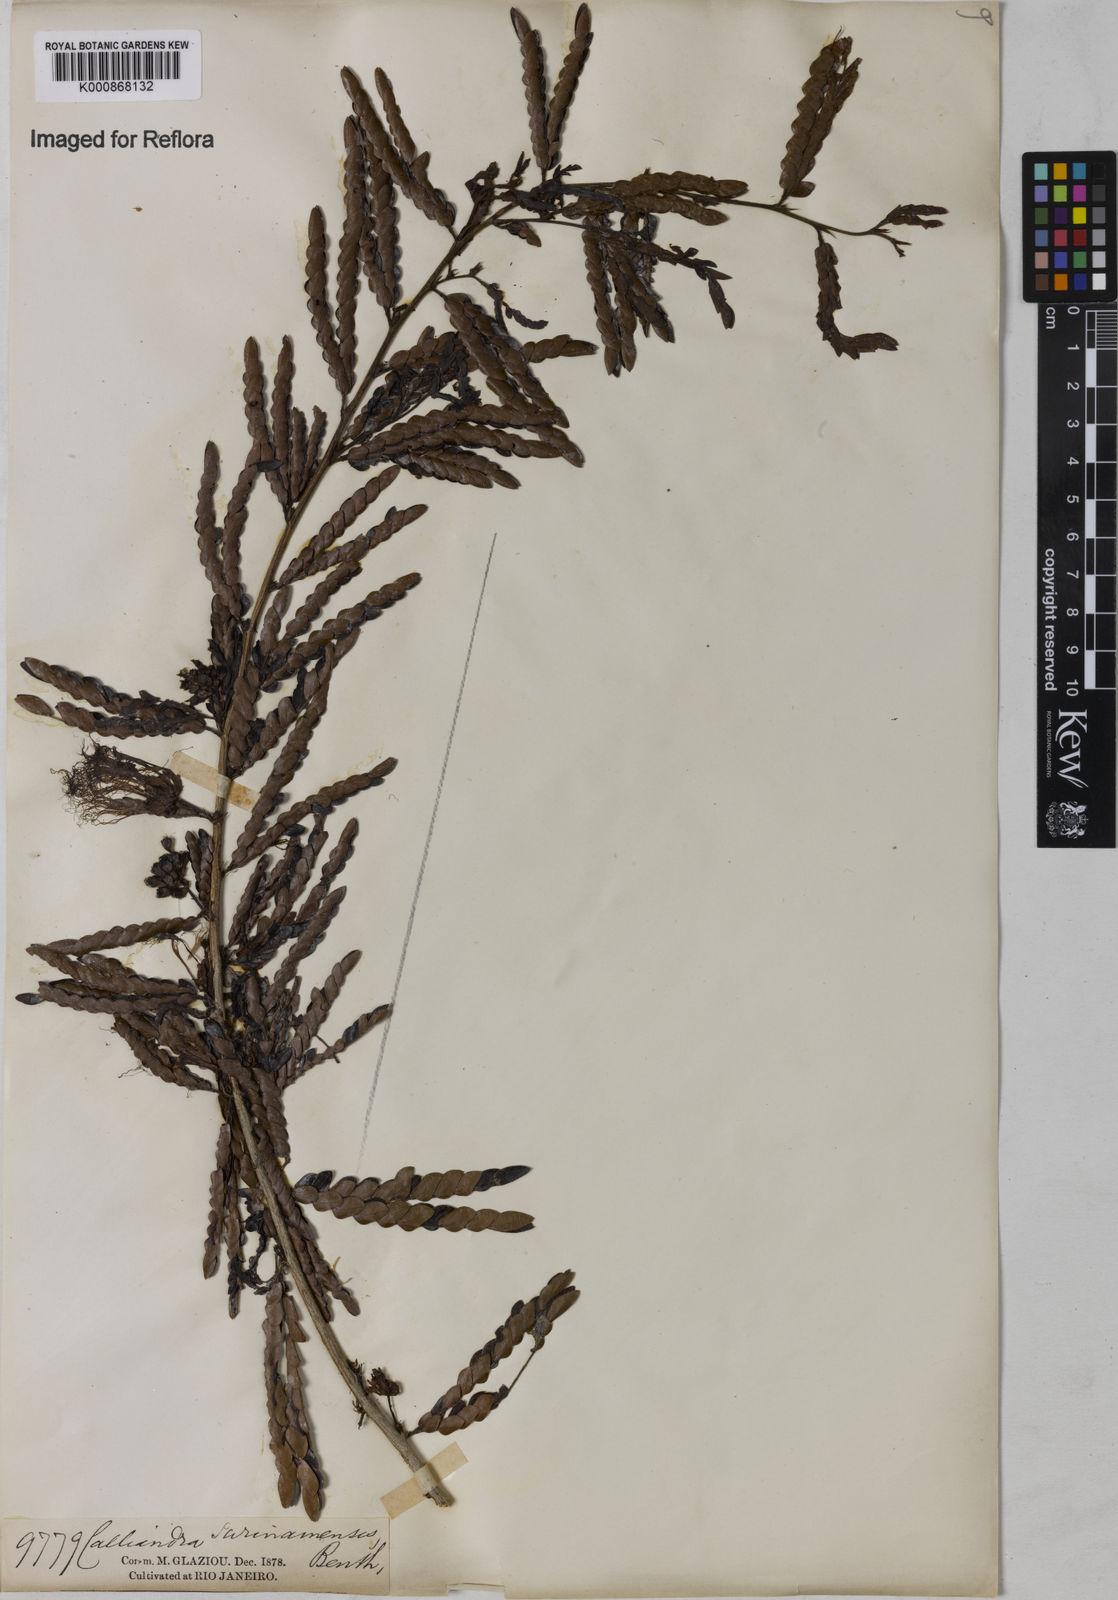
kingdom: Plantae
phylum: Tracheophyta
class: Magnoliopsida
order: Fabales
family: Fabaceae
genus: Calliandra
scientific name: Calliandra surinamensis
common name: Pink powder puff
